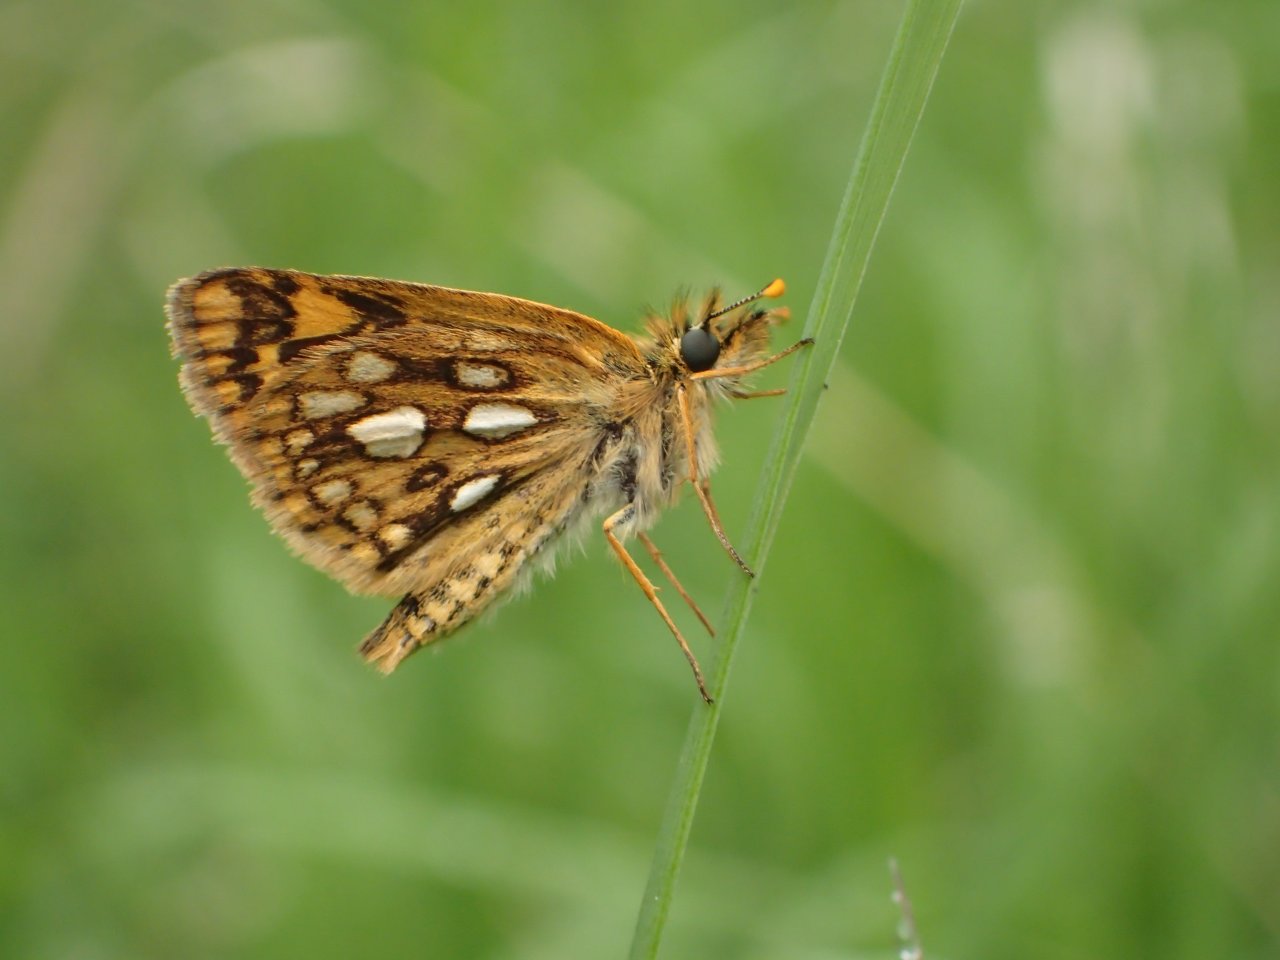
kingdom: Animalia
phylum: Arthropoda
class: Insecta
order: Lepidoptera
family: Hesperiidae
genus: Carterocephalus
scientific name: Carterocephalus palaemon
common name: Chequered Skipper
